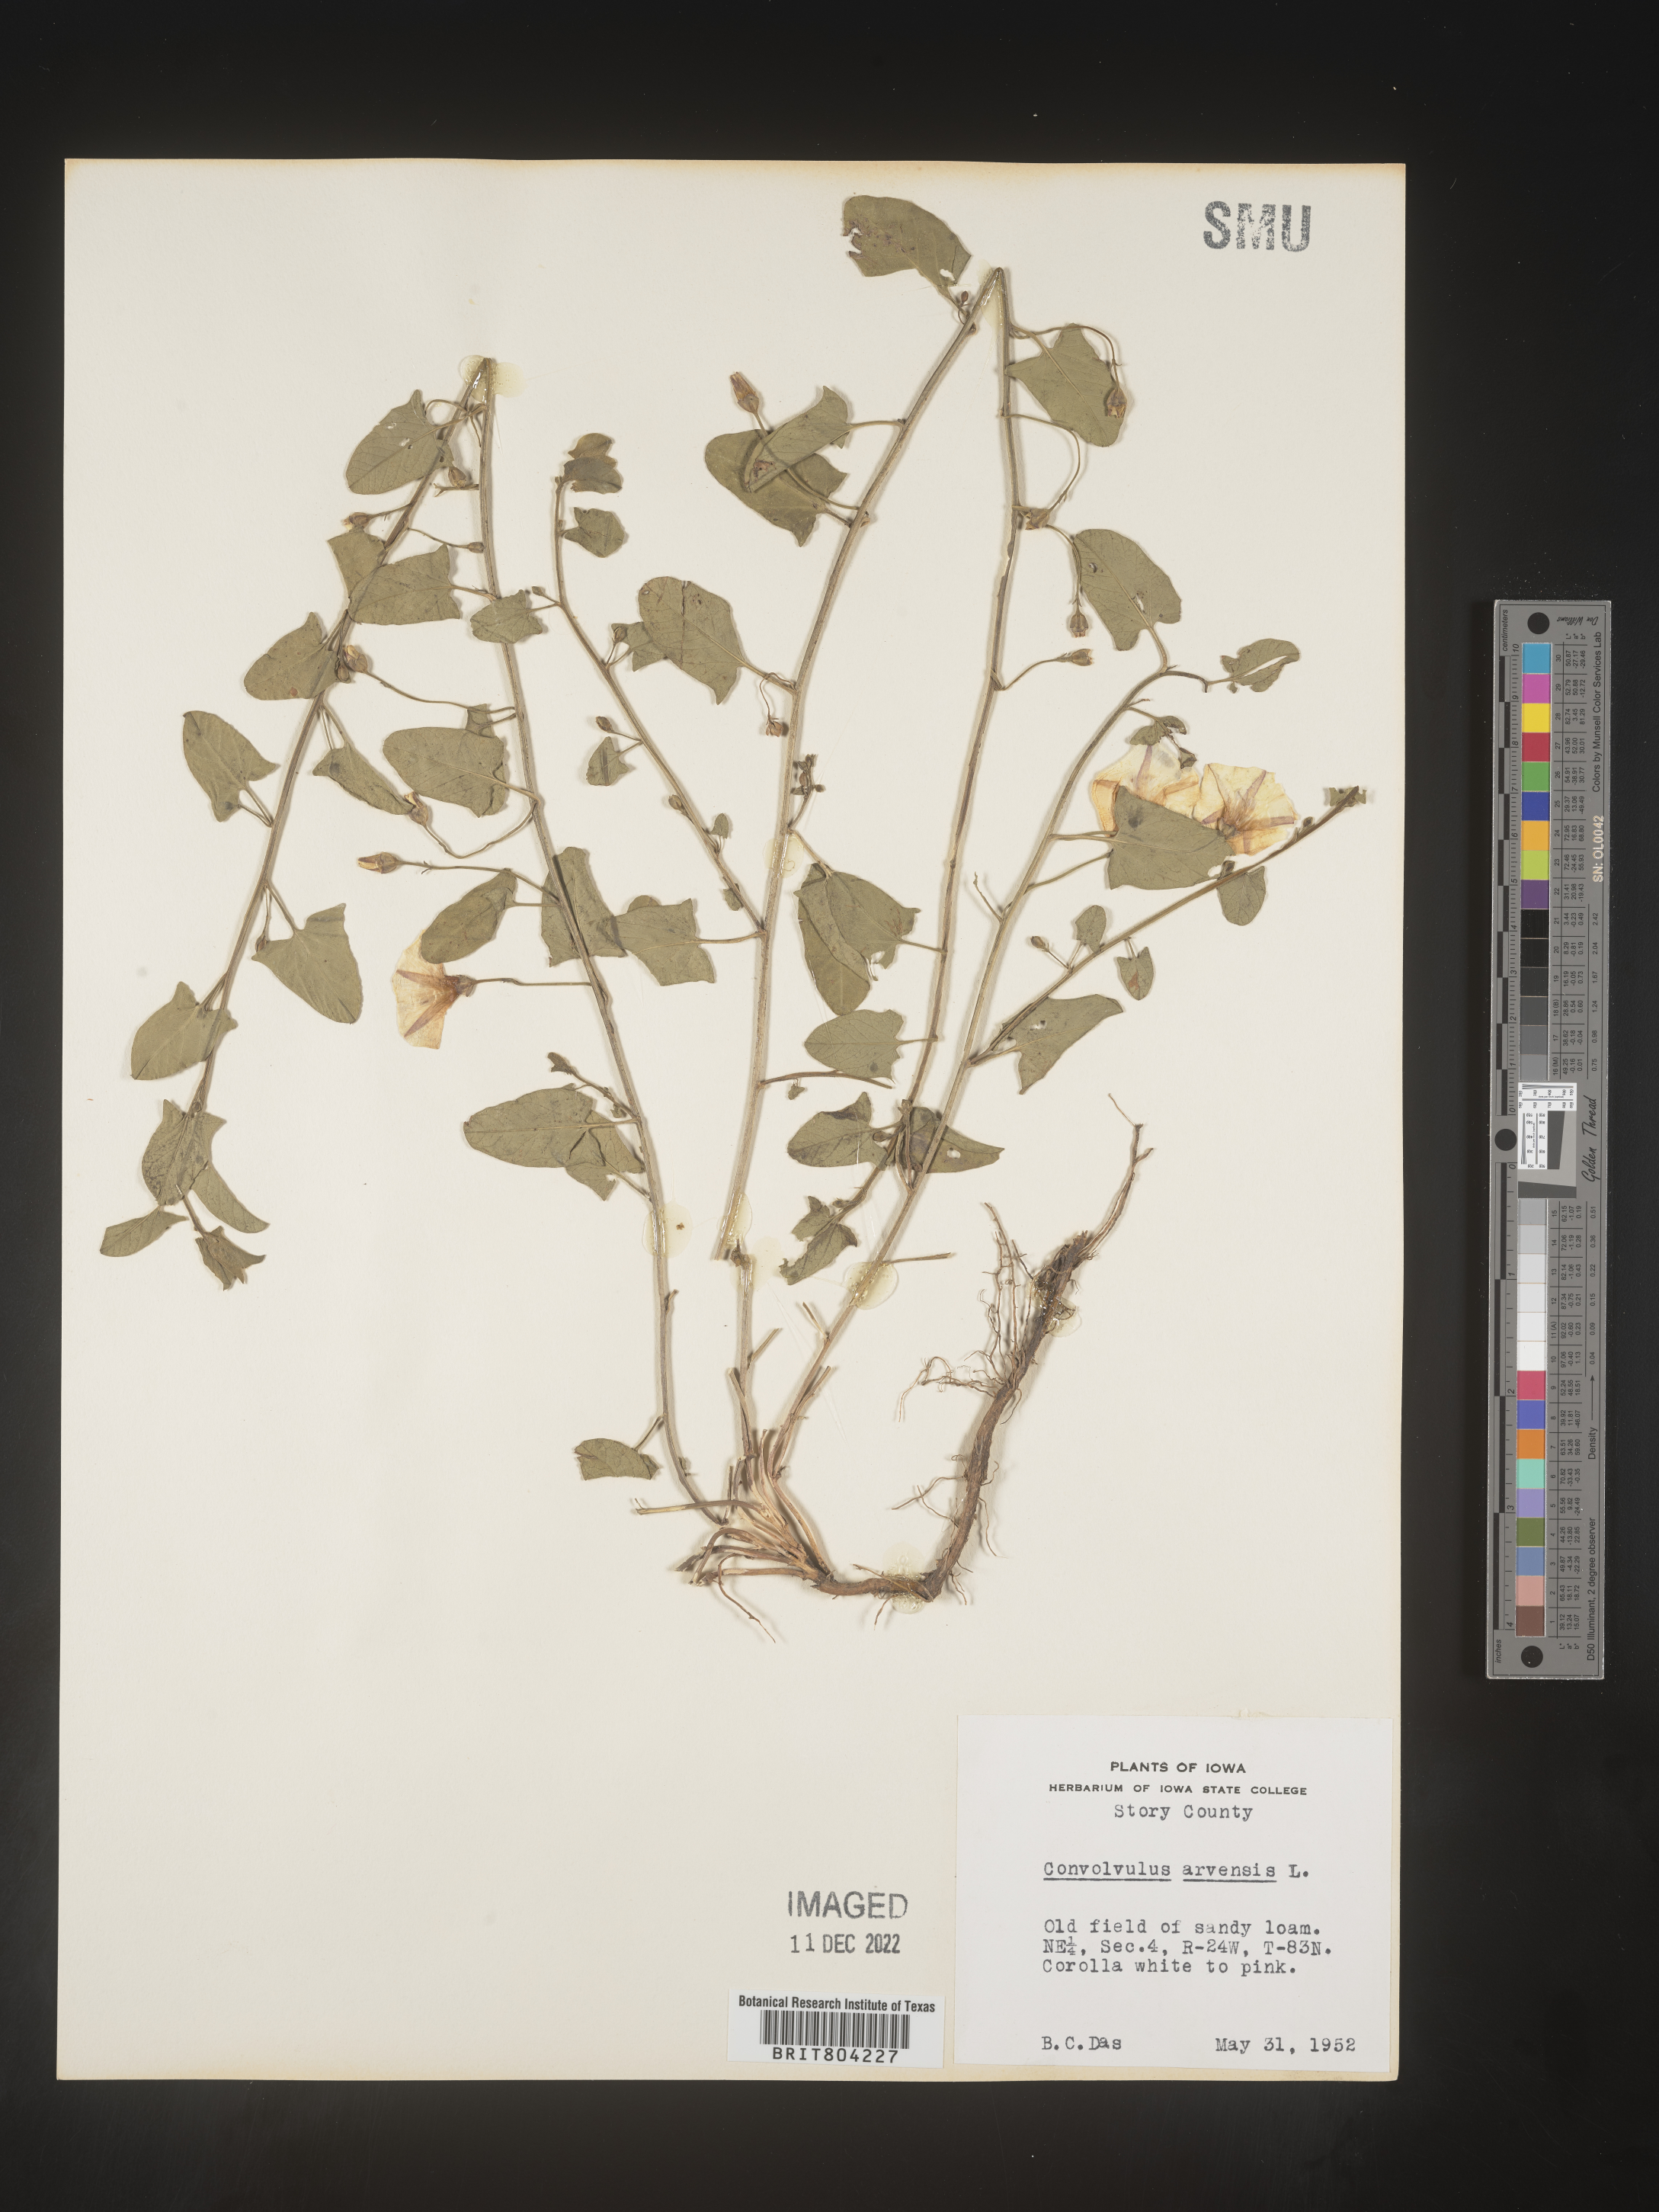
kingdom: Plantae
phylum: Tracheophyta
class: Magnoliopsida
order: Solanales
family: Convolvulaceae
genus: Convolvulus
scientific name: Convolvulus arvensis
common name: Field bindweed
